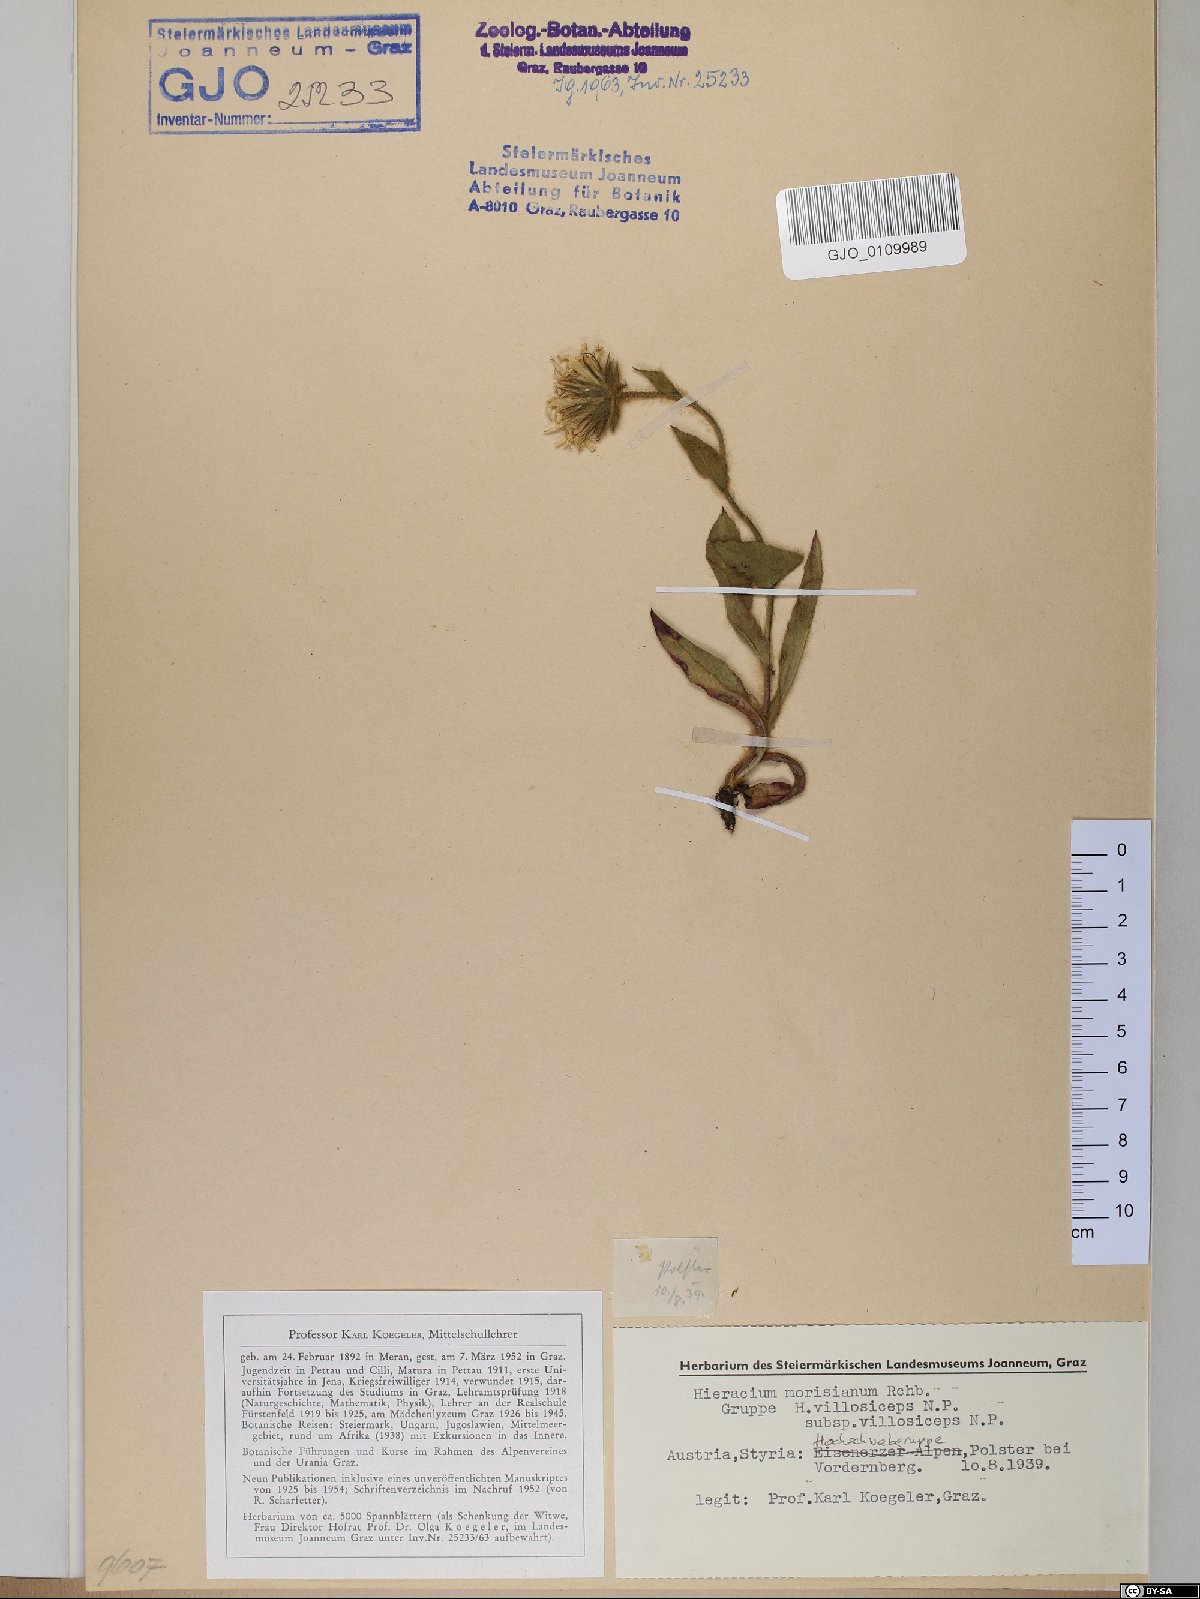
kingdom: Plantae
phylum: Tracheophyta
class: Magnoliopsida
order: Asterales
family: Asteraceae
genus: Hieracium
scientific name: Hieracium pilosum
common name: Fimbriate-pitted hawkweed
